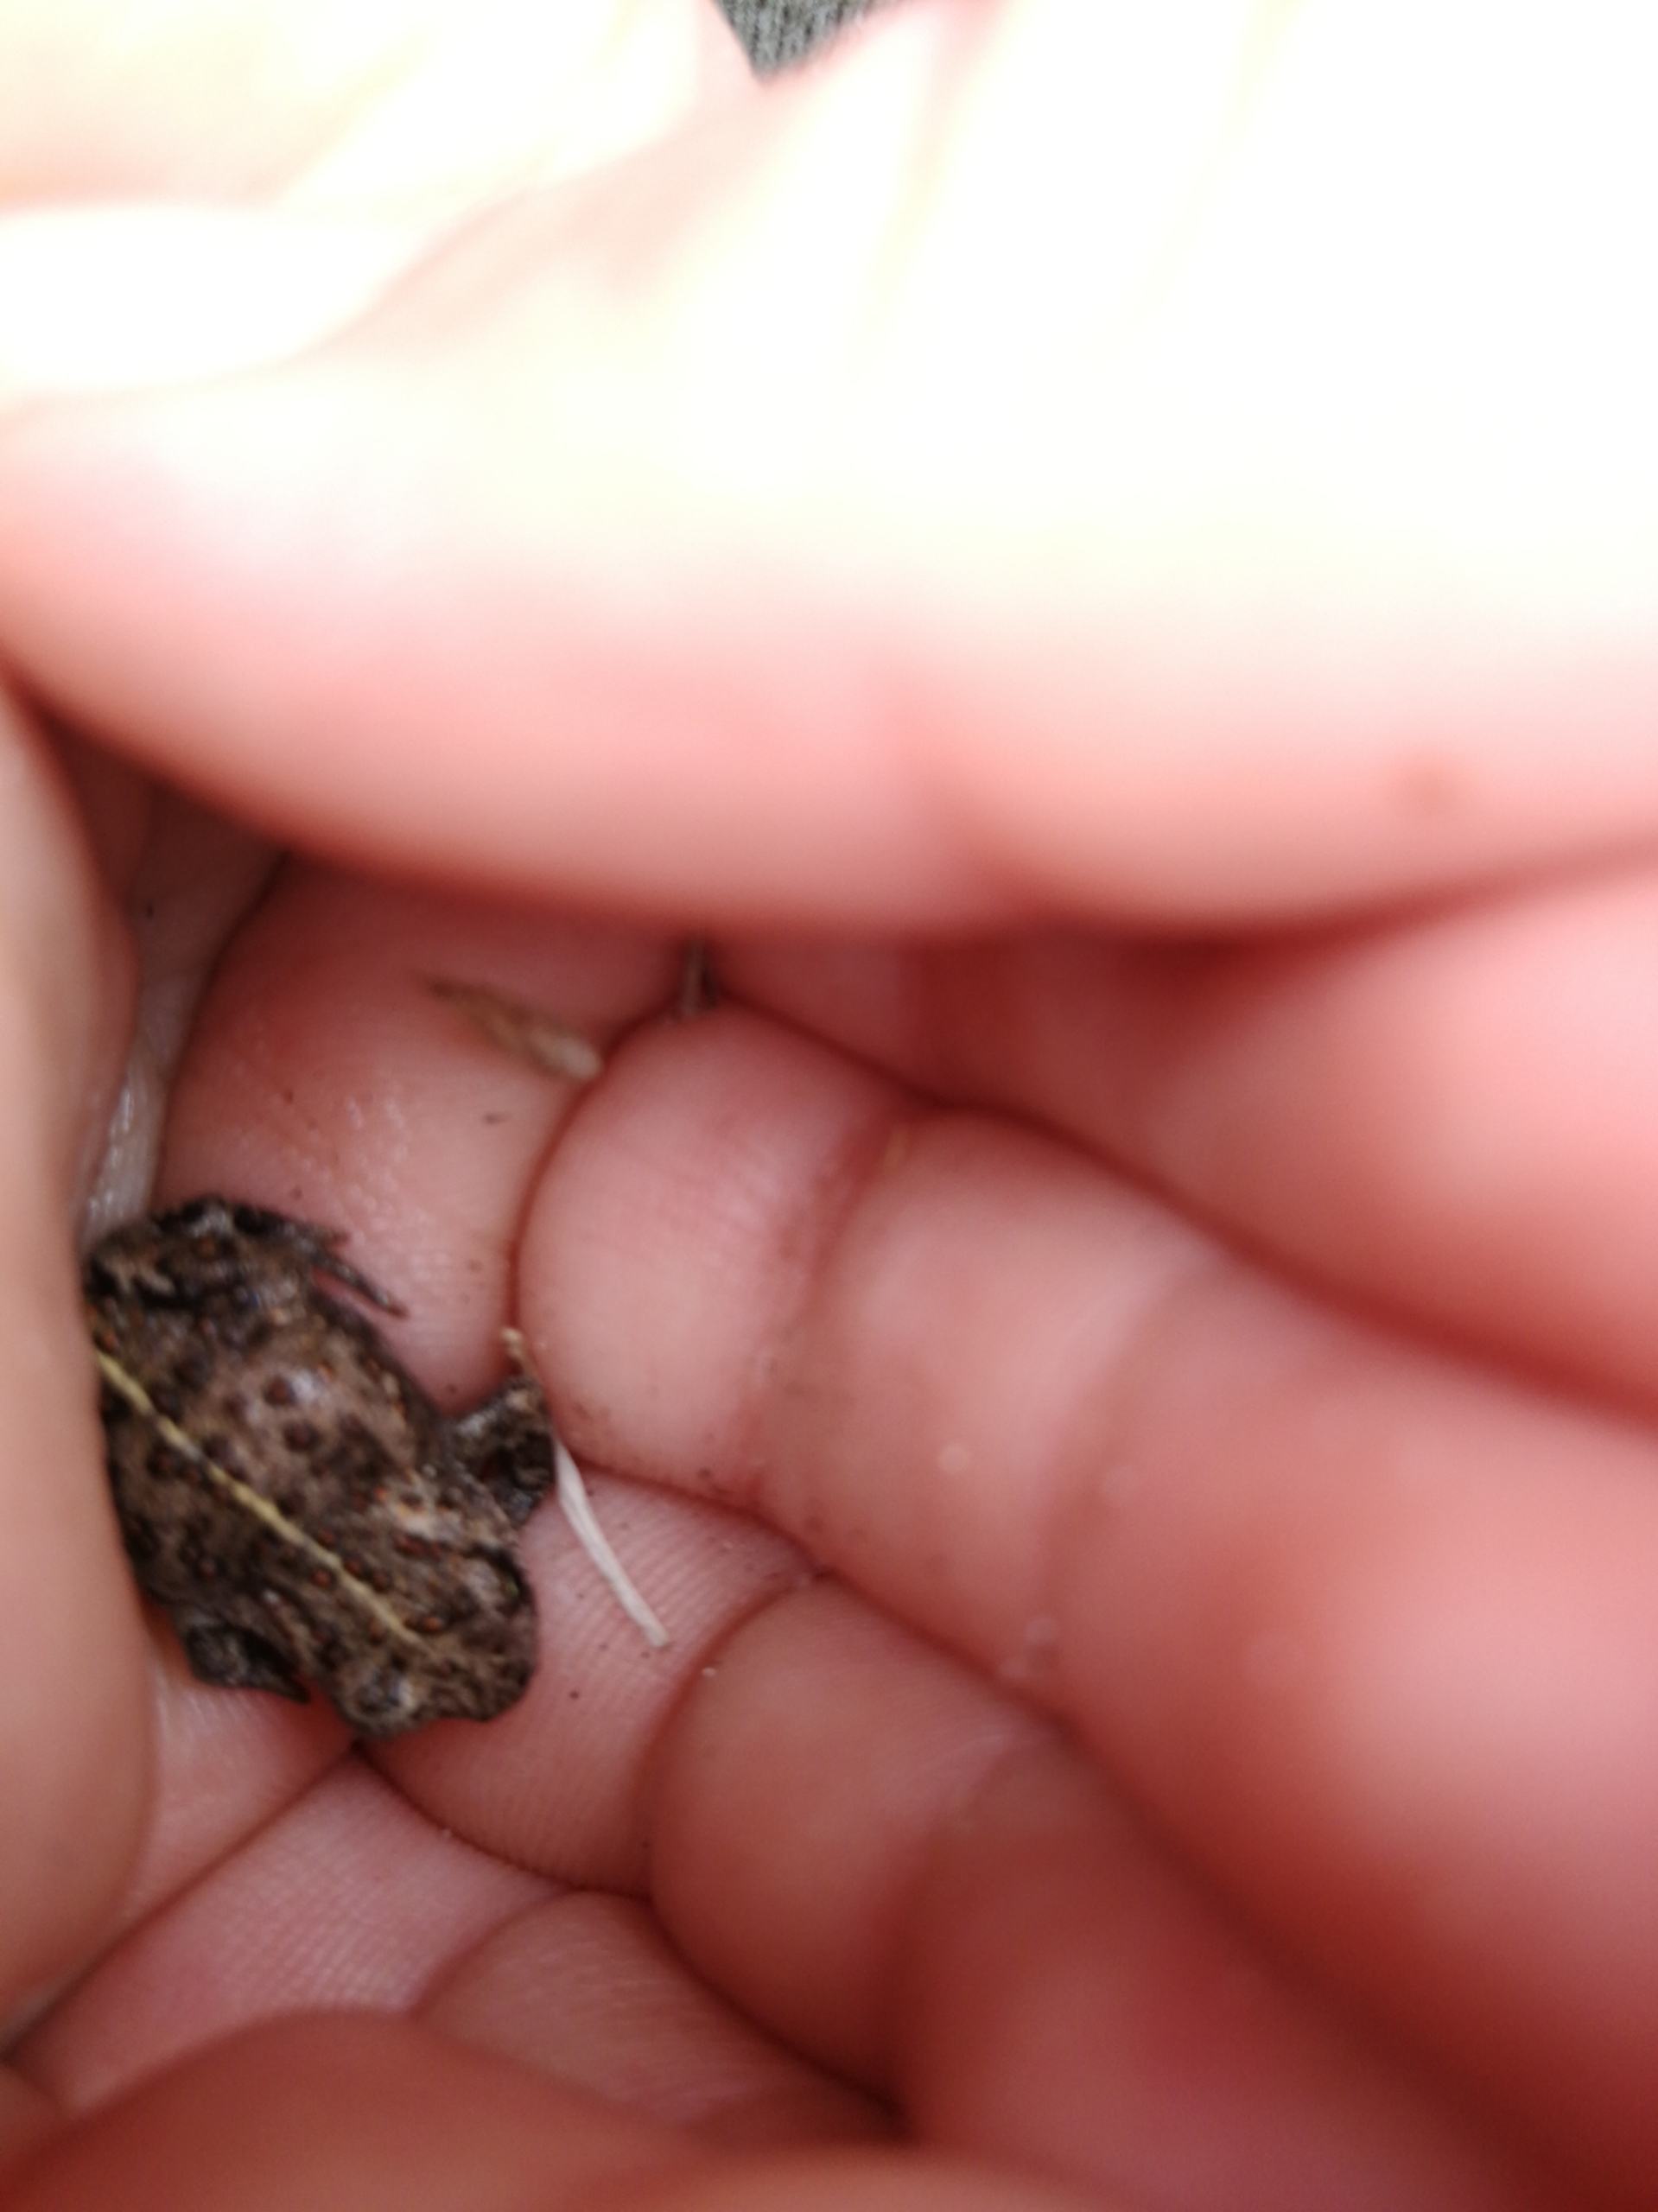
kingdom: Animalia
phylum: Chordata
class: Amphibia
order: Anura
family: Bufonidae
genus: Epidalea
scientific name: Epidalea calamita
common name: Strandtudse
